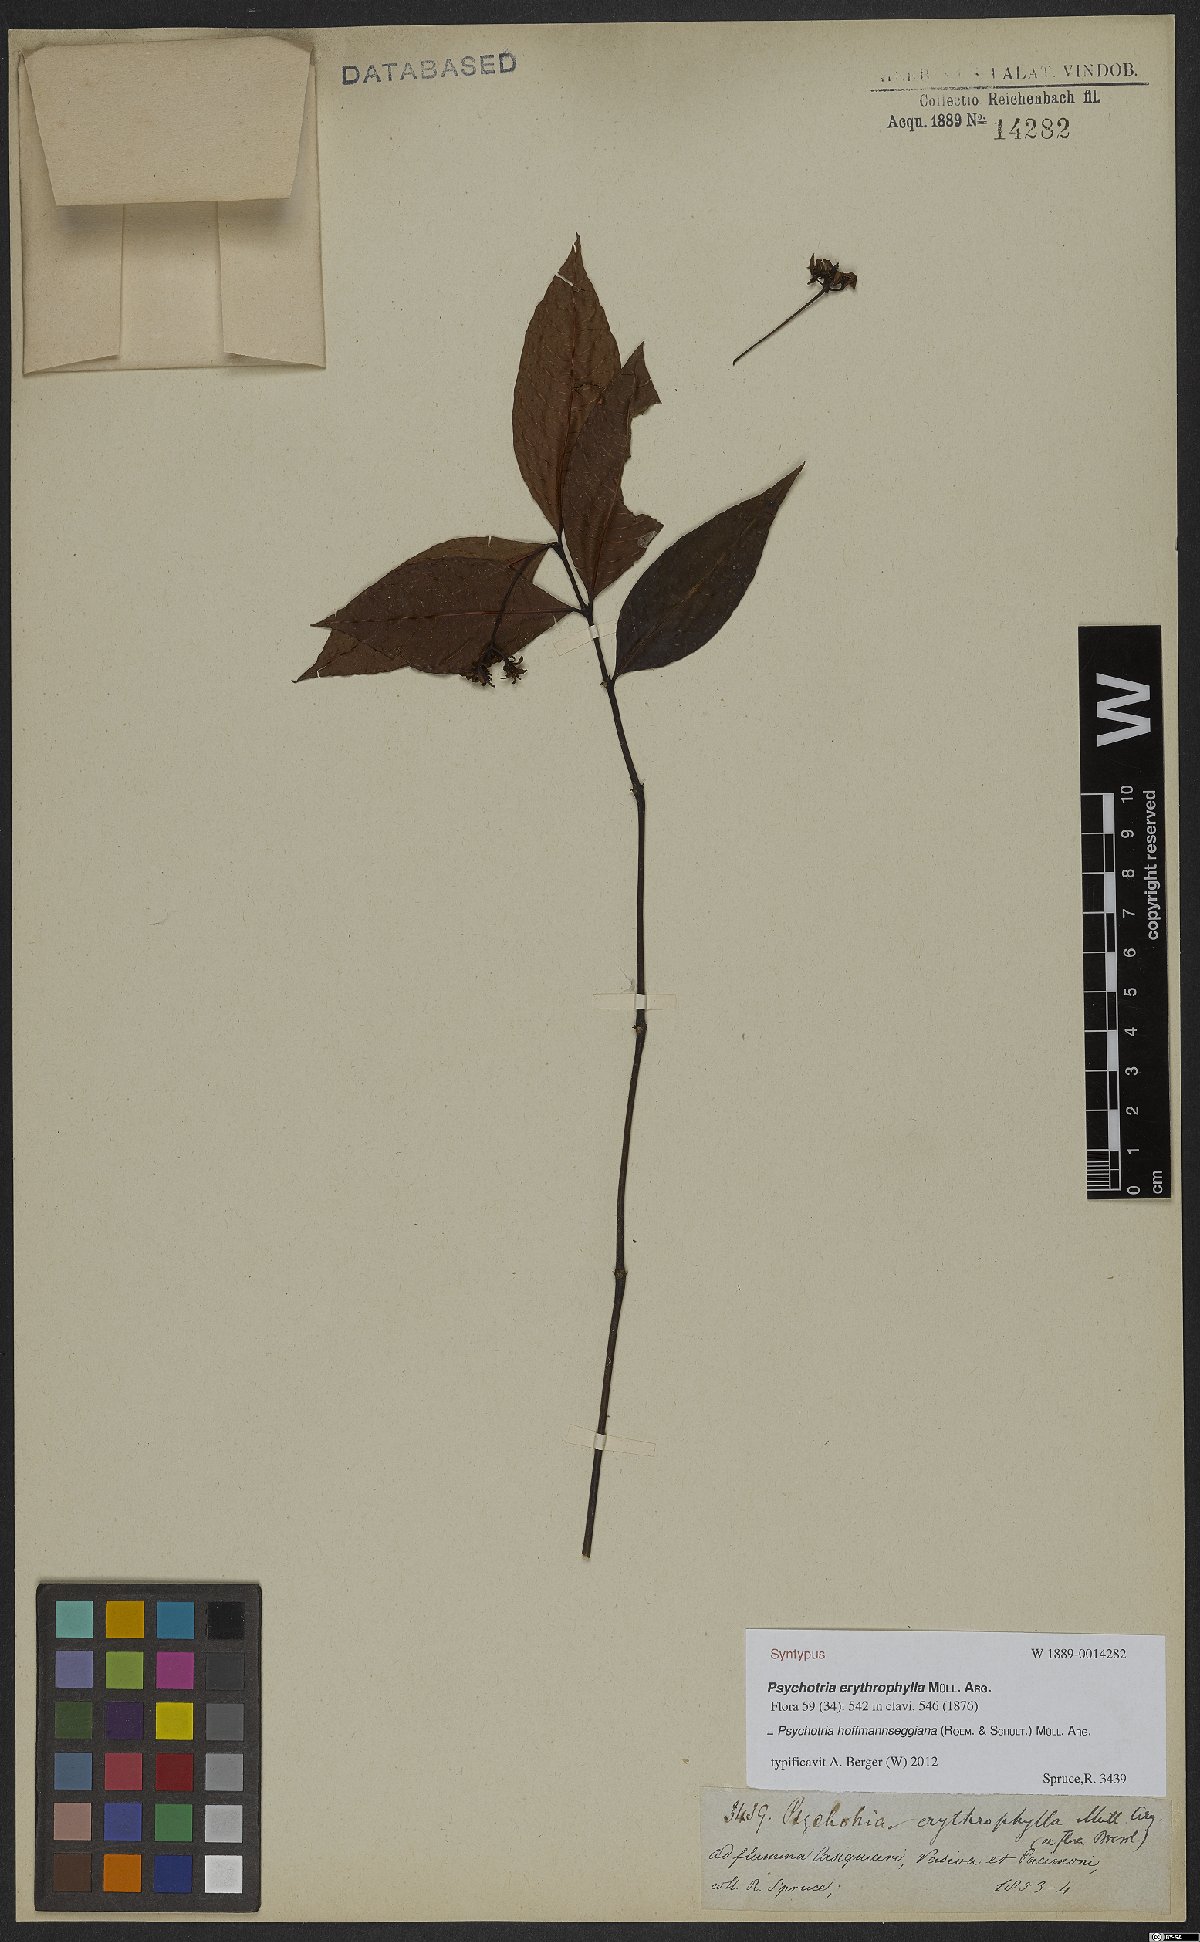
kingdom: Plantae
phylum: Tracheophyta
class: Magnoliopsida
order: Gentianales
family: Rubiaceae
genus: Palicourea
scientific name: Palicourea hoffmannseggiana
